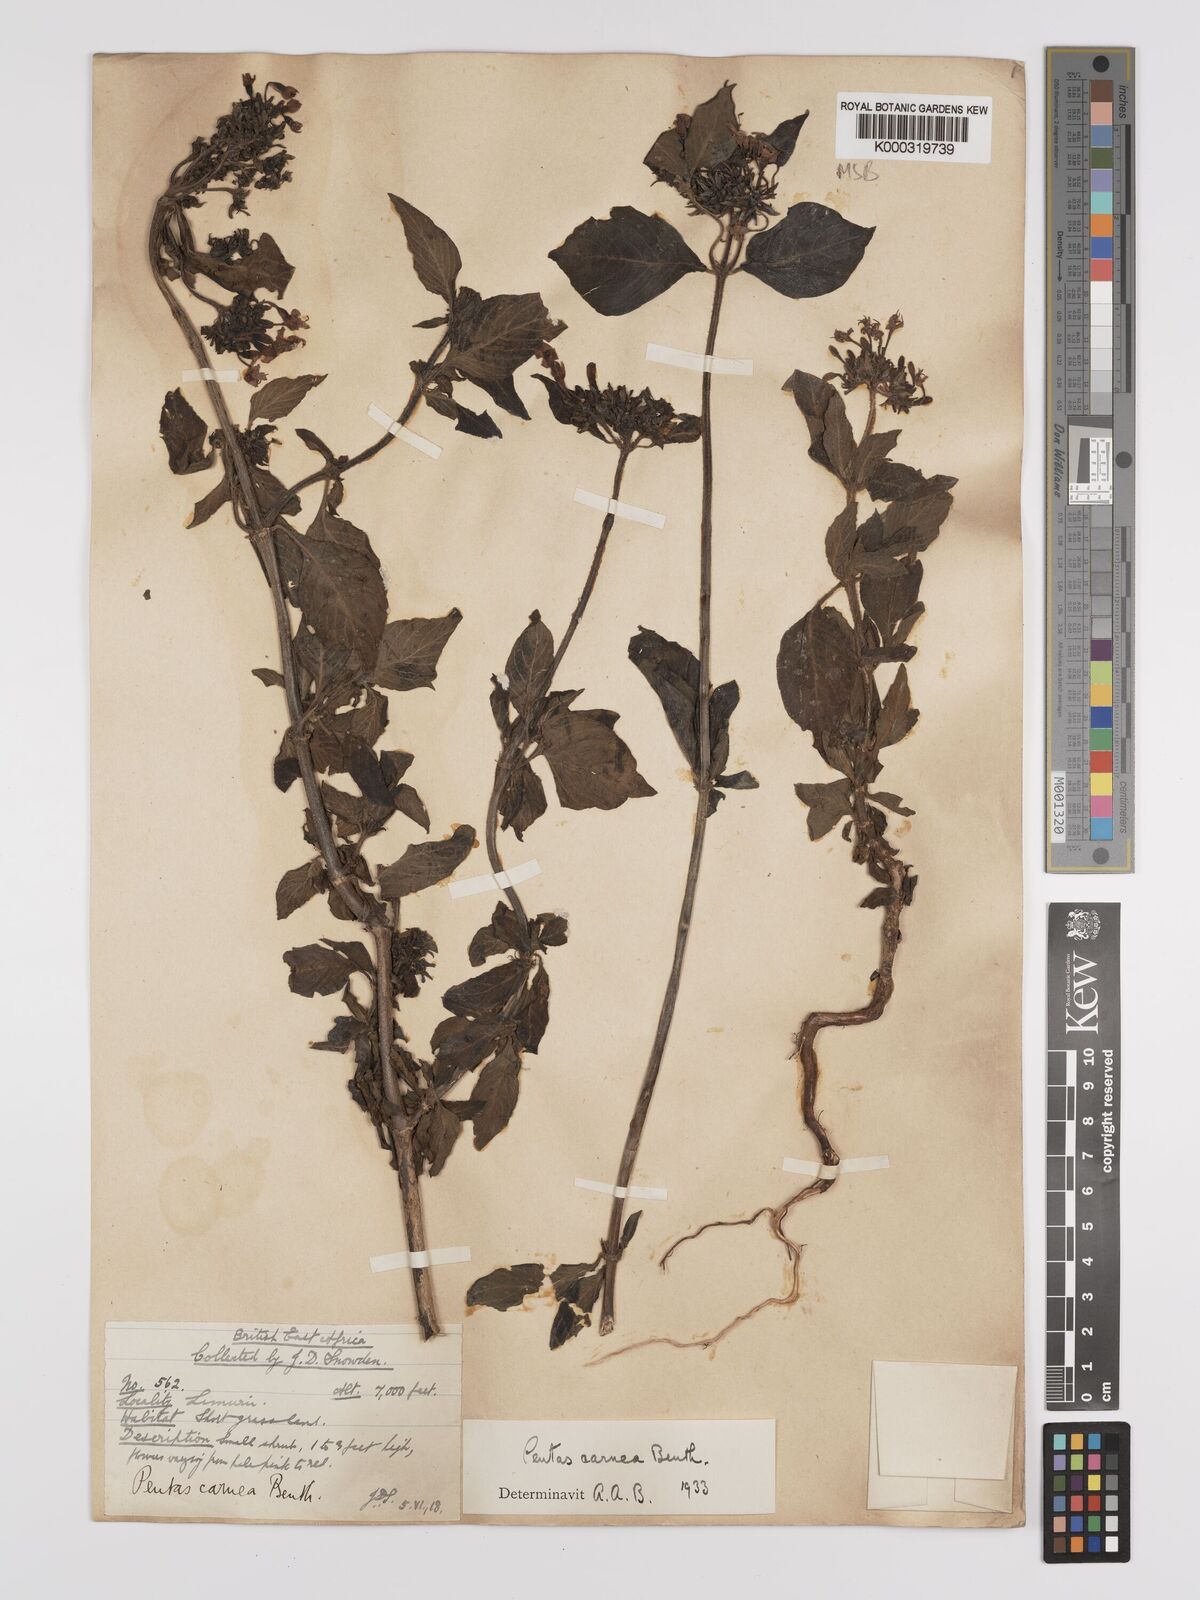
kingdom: Plantae
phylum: Tracheophyta
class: Magnoliopsida
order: Gentianales
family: Rubiaceae
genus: Pentas
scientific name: Pentas lanceolata
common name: Egyptian starcluster
